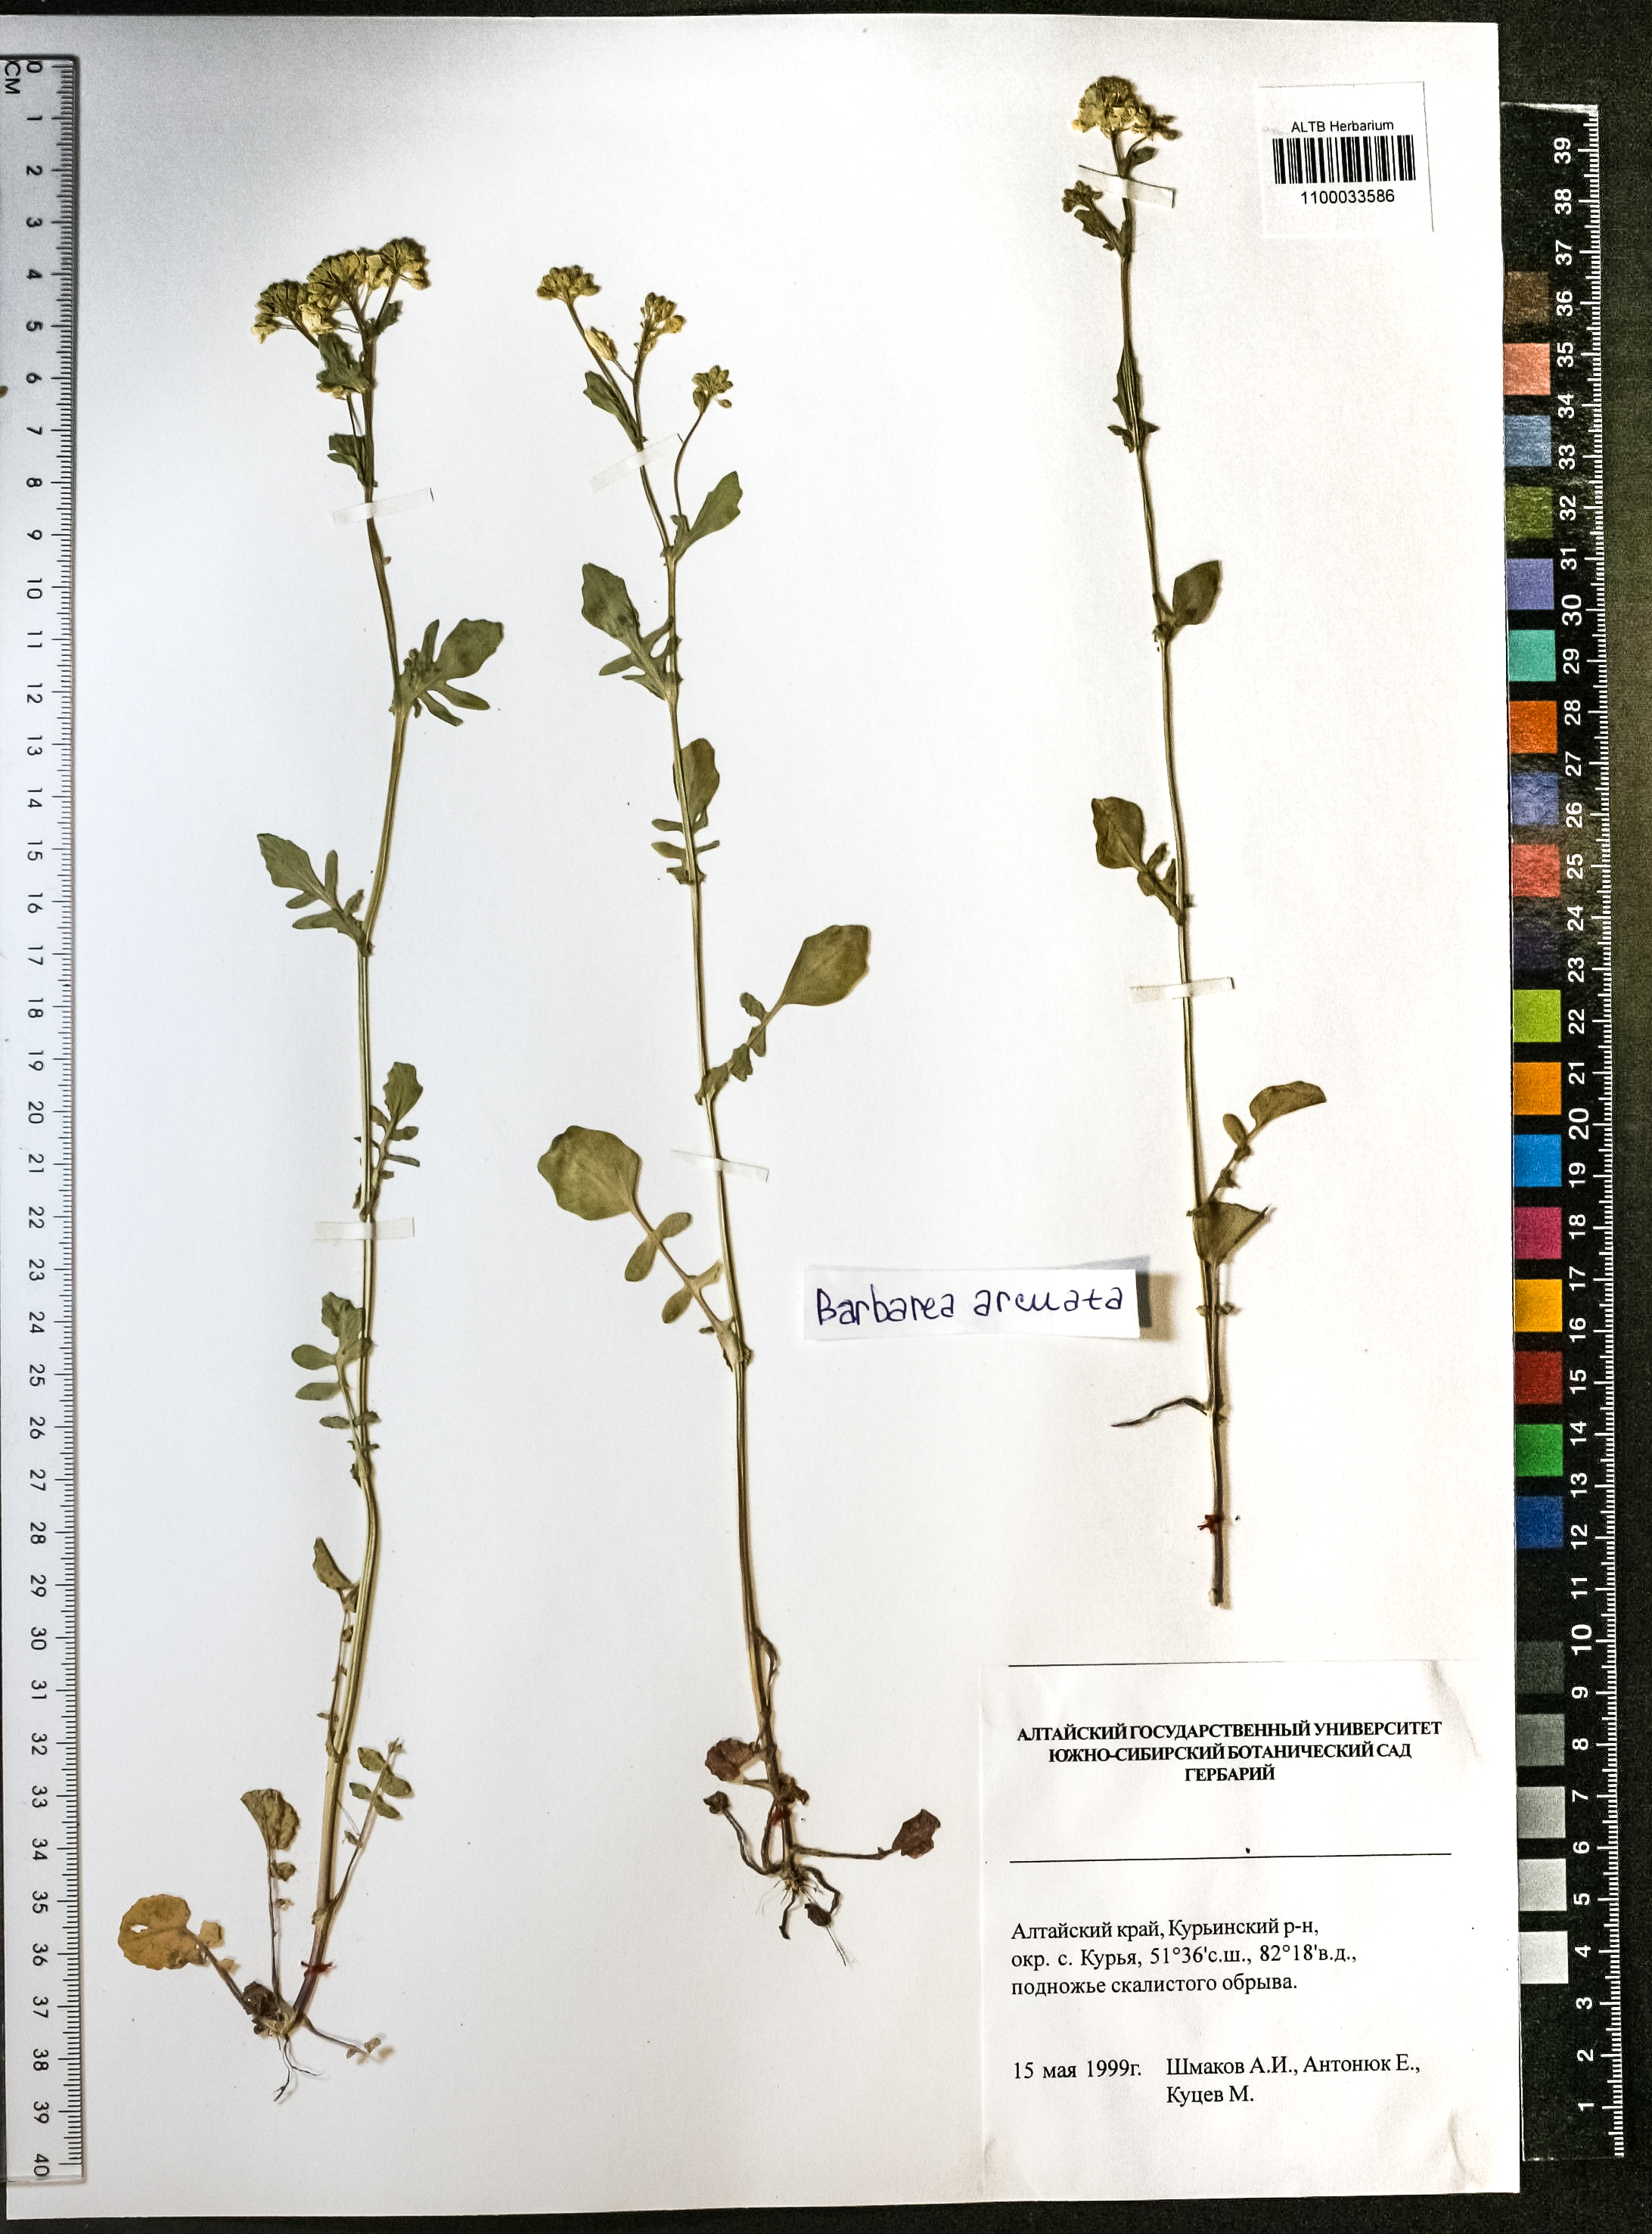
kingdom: Plantae
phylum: Tracheophyta
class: Magnoliopsida
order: Brassicales
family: Brassicaceae
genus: Barbarea
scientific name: Barbarea vulgaris
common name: Cressy-greens
